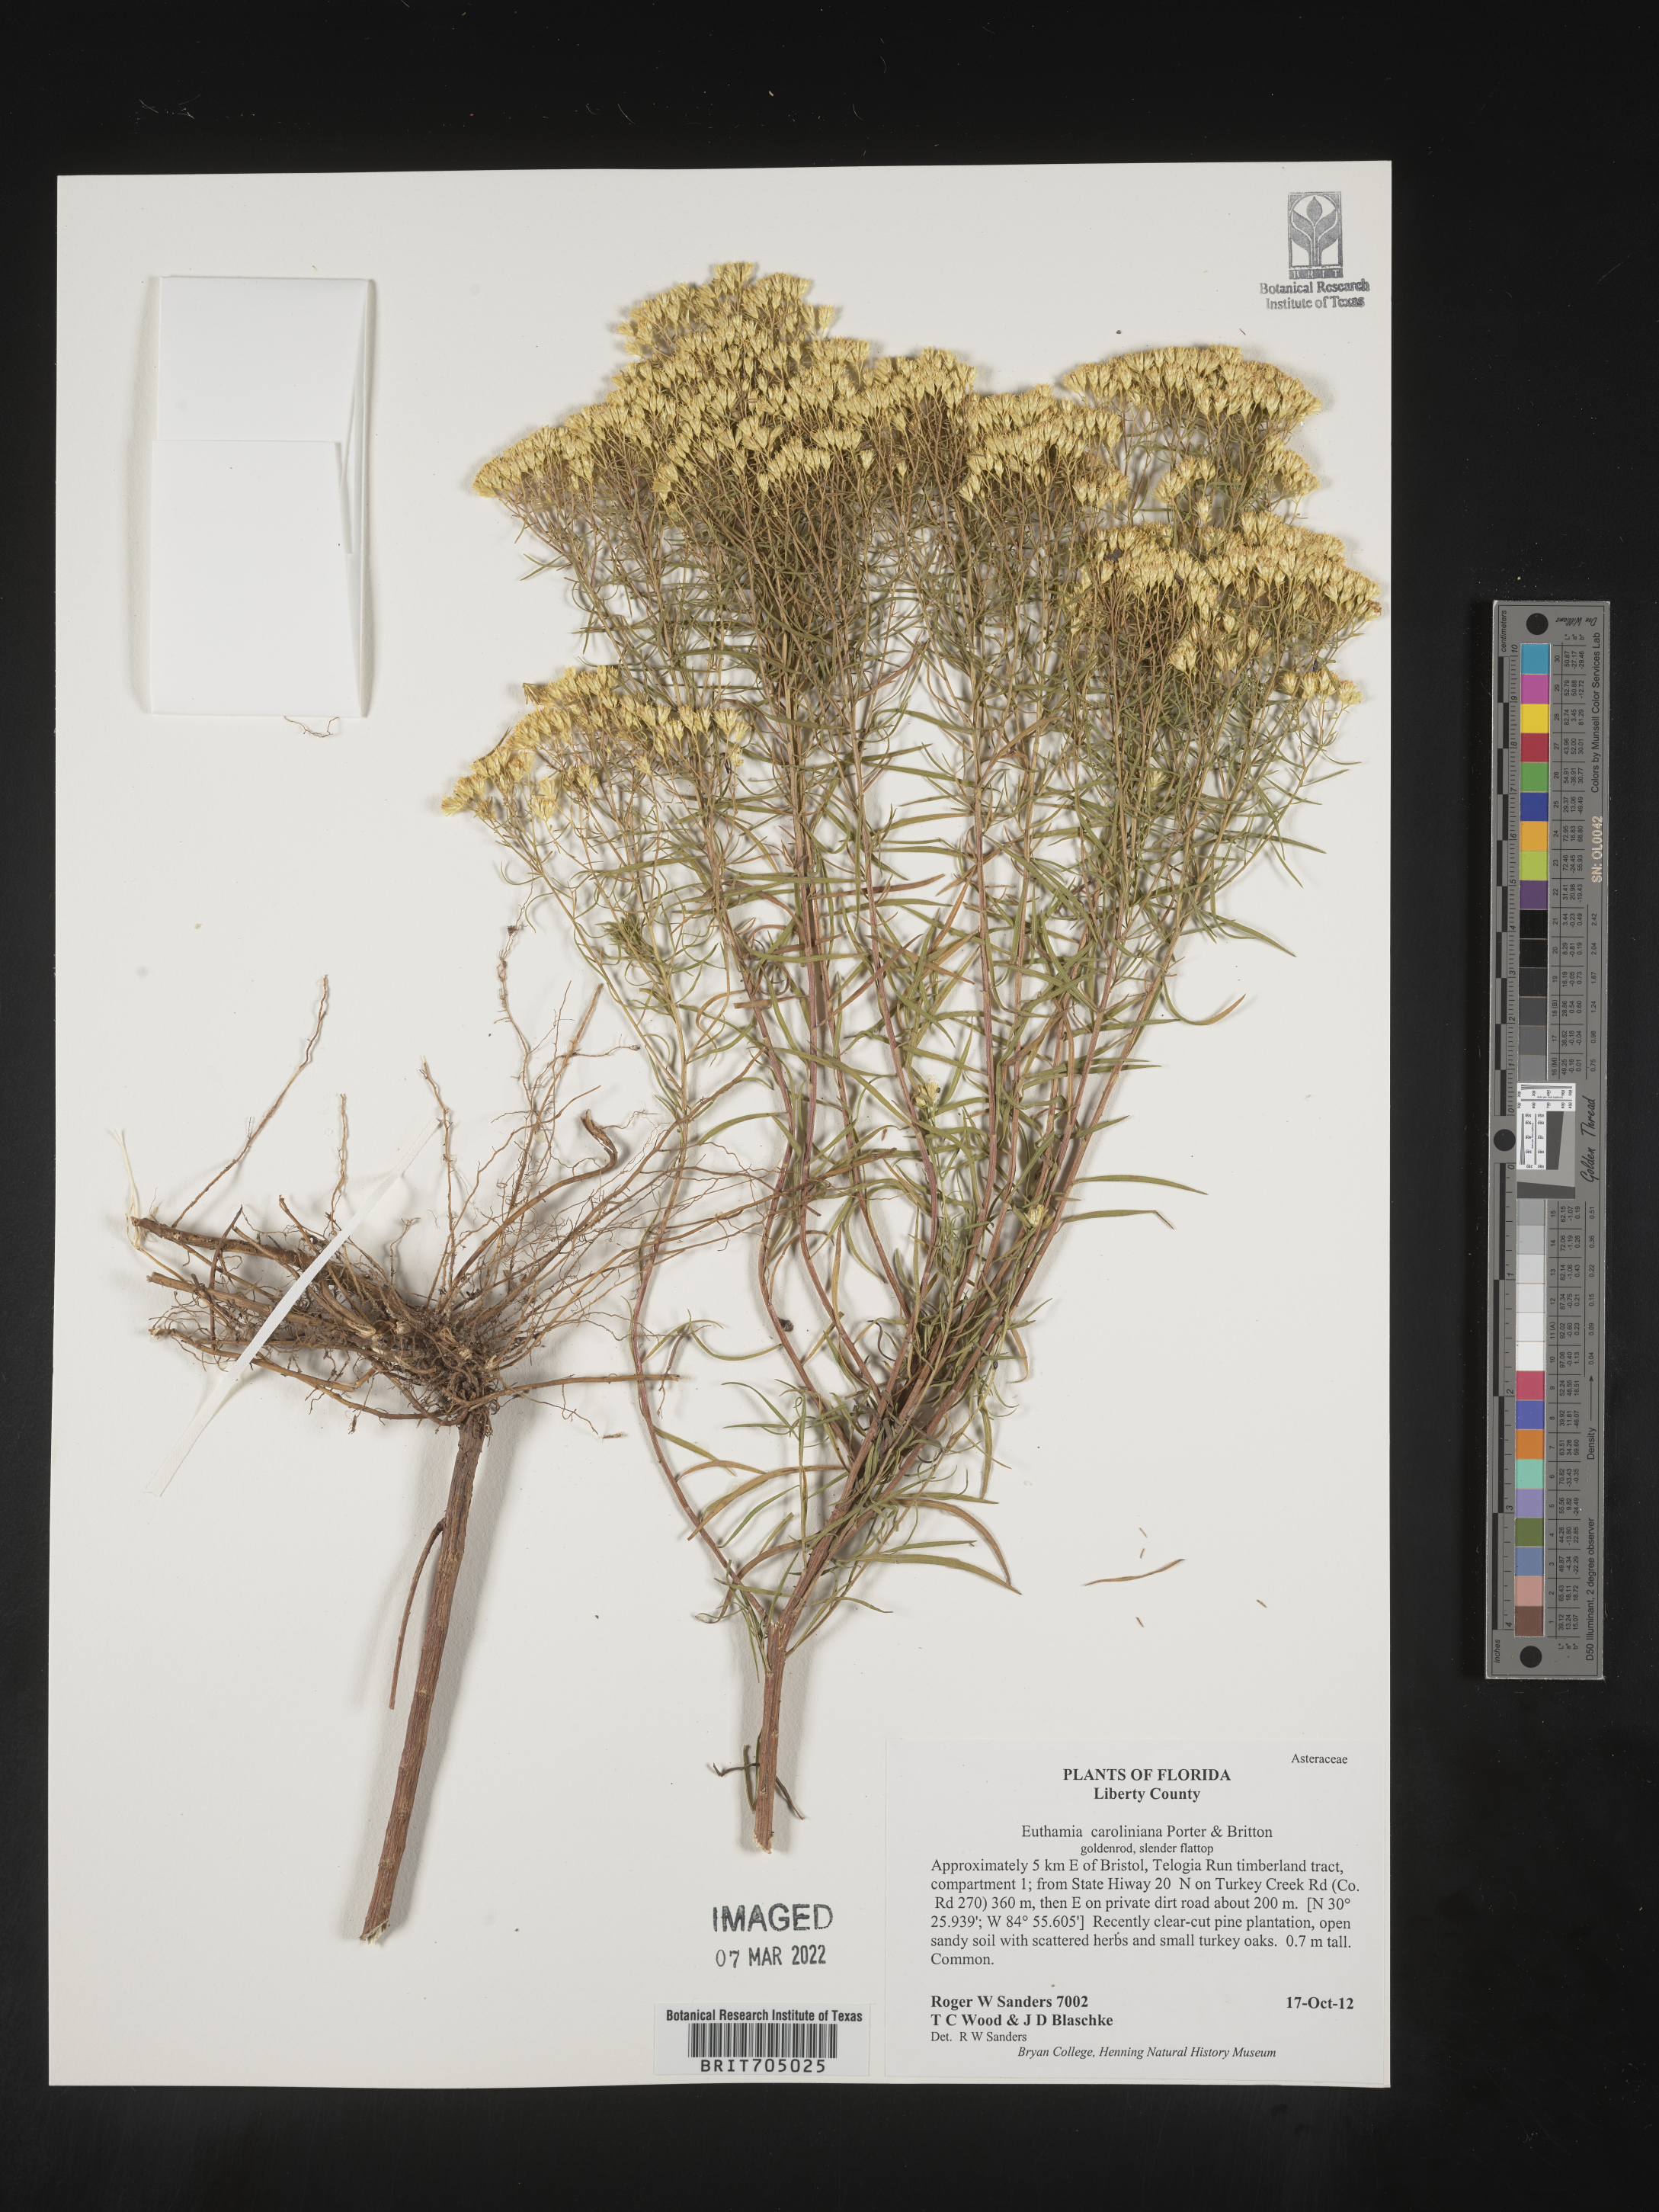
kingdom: Plantae
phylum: Tracheophyta
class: Magnoliopsida
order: Asterales
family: Asteraceae
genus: Euthamia
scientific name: Euthamia caroliniana
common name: Coastal plain goldentop
